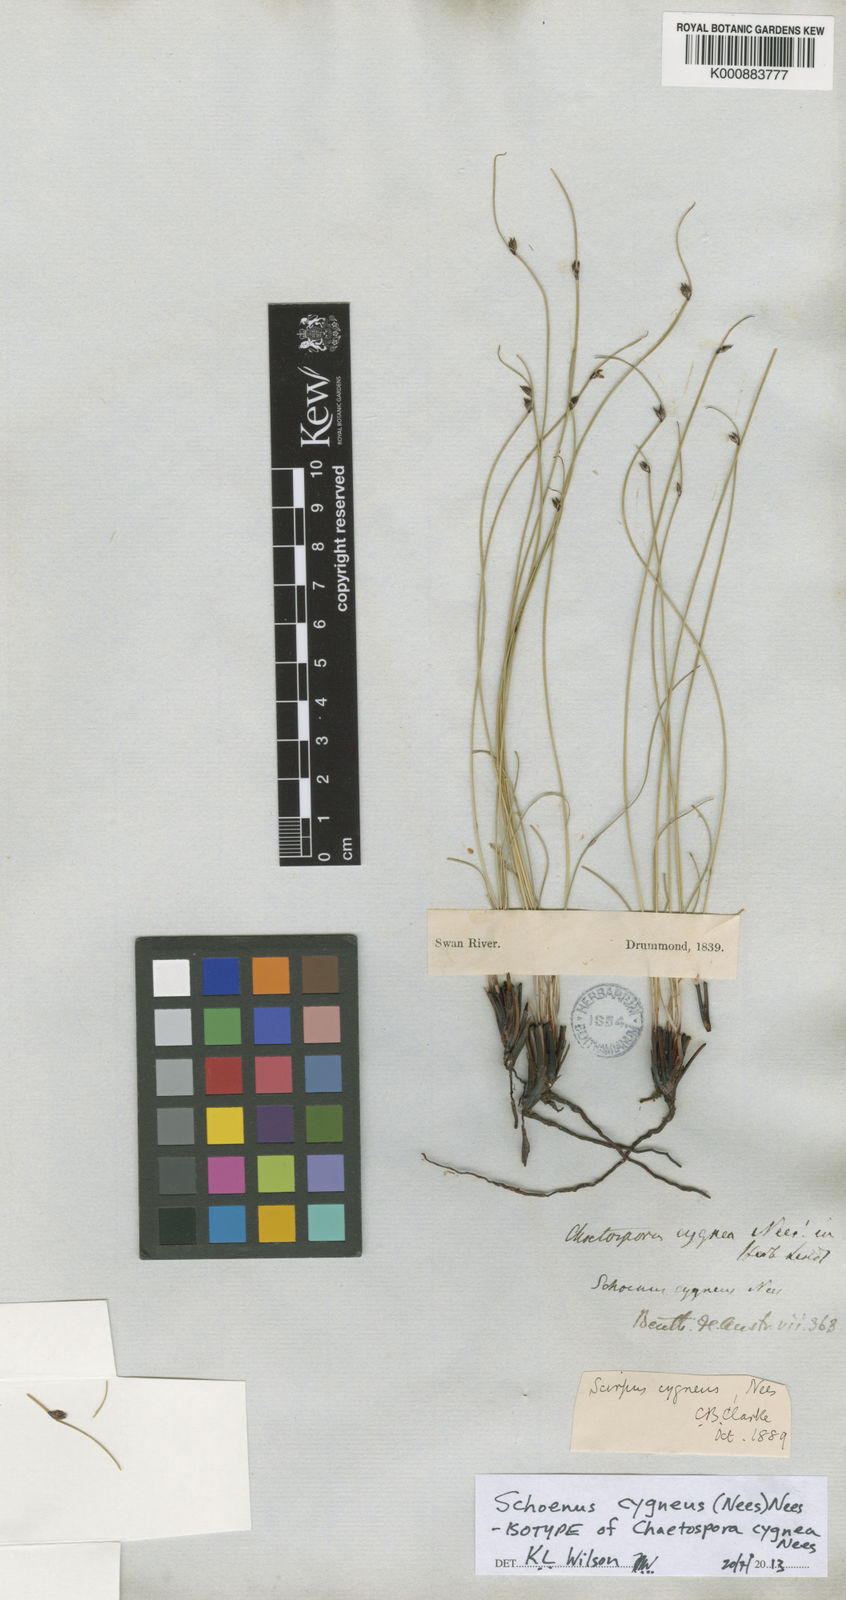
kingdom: Plantae
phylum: Tracheophyta
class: Liliopsida
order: Poales
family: Cyperaceae
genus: Schoenus
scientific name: Schoenus cygneus
